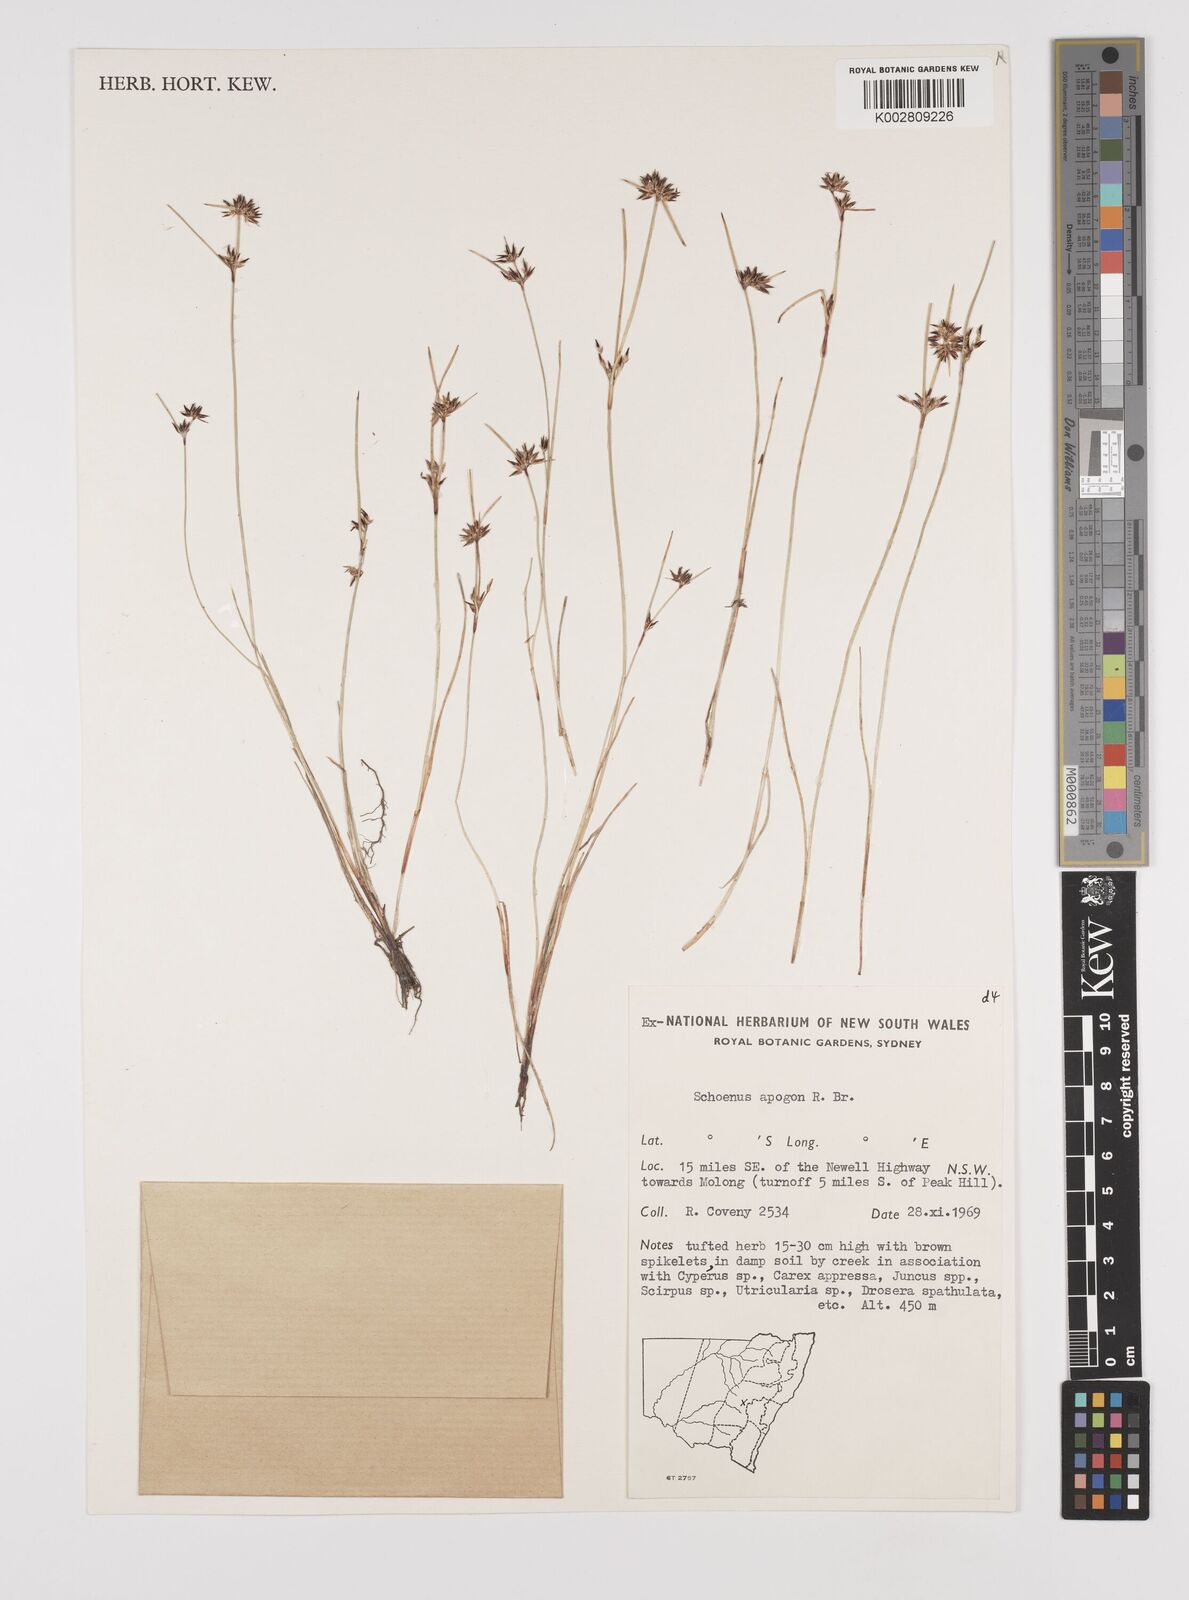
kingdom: Plantae
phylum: Tracheophyta
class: Liliopsida
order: Poales
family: Cyperaceae
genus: Schoenus
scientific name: Schoenus apogon
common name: Smooth bogrush
